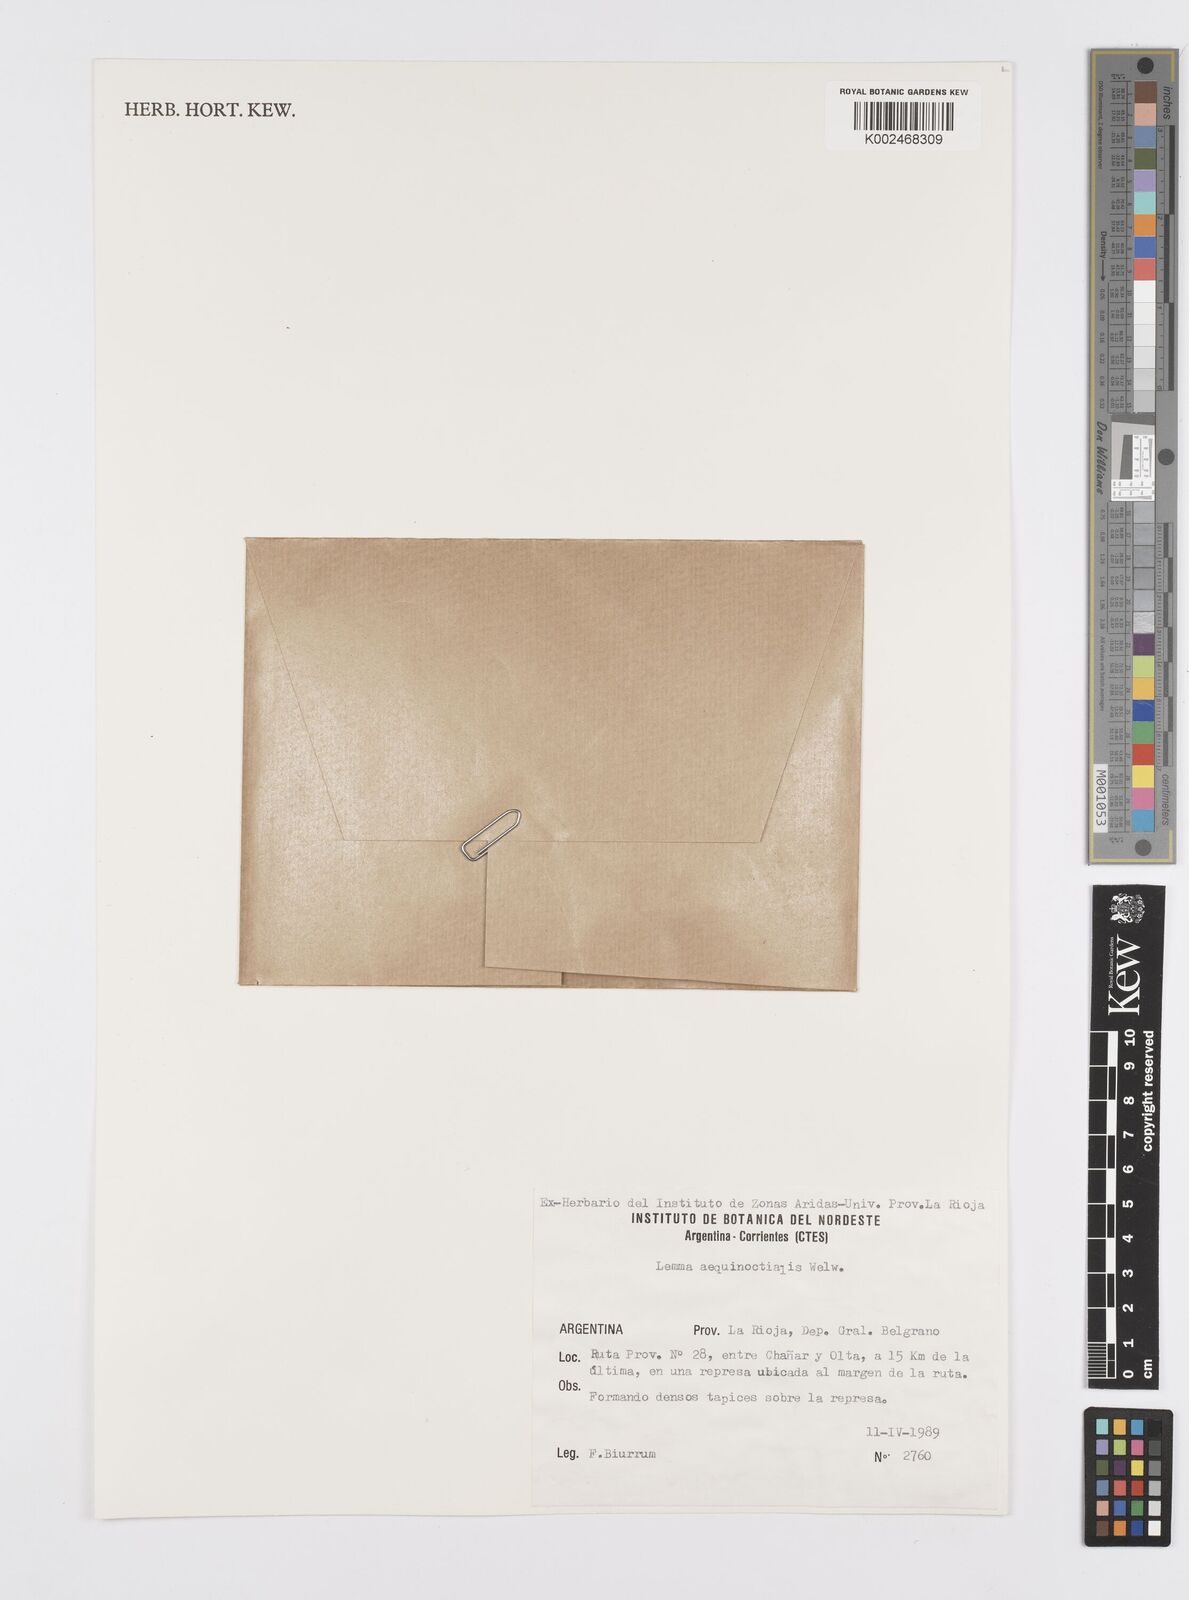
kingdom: Plantae
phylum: Tracheophyta
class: Liliopsida
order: Alismatales
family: Araceae
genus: Lemna
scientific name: Lemna aequinoctialis
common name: Duckweed
